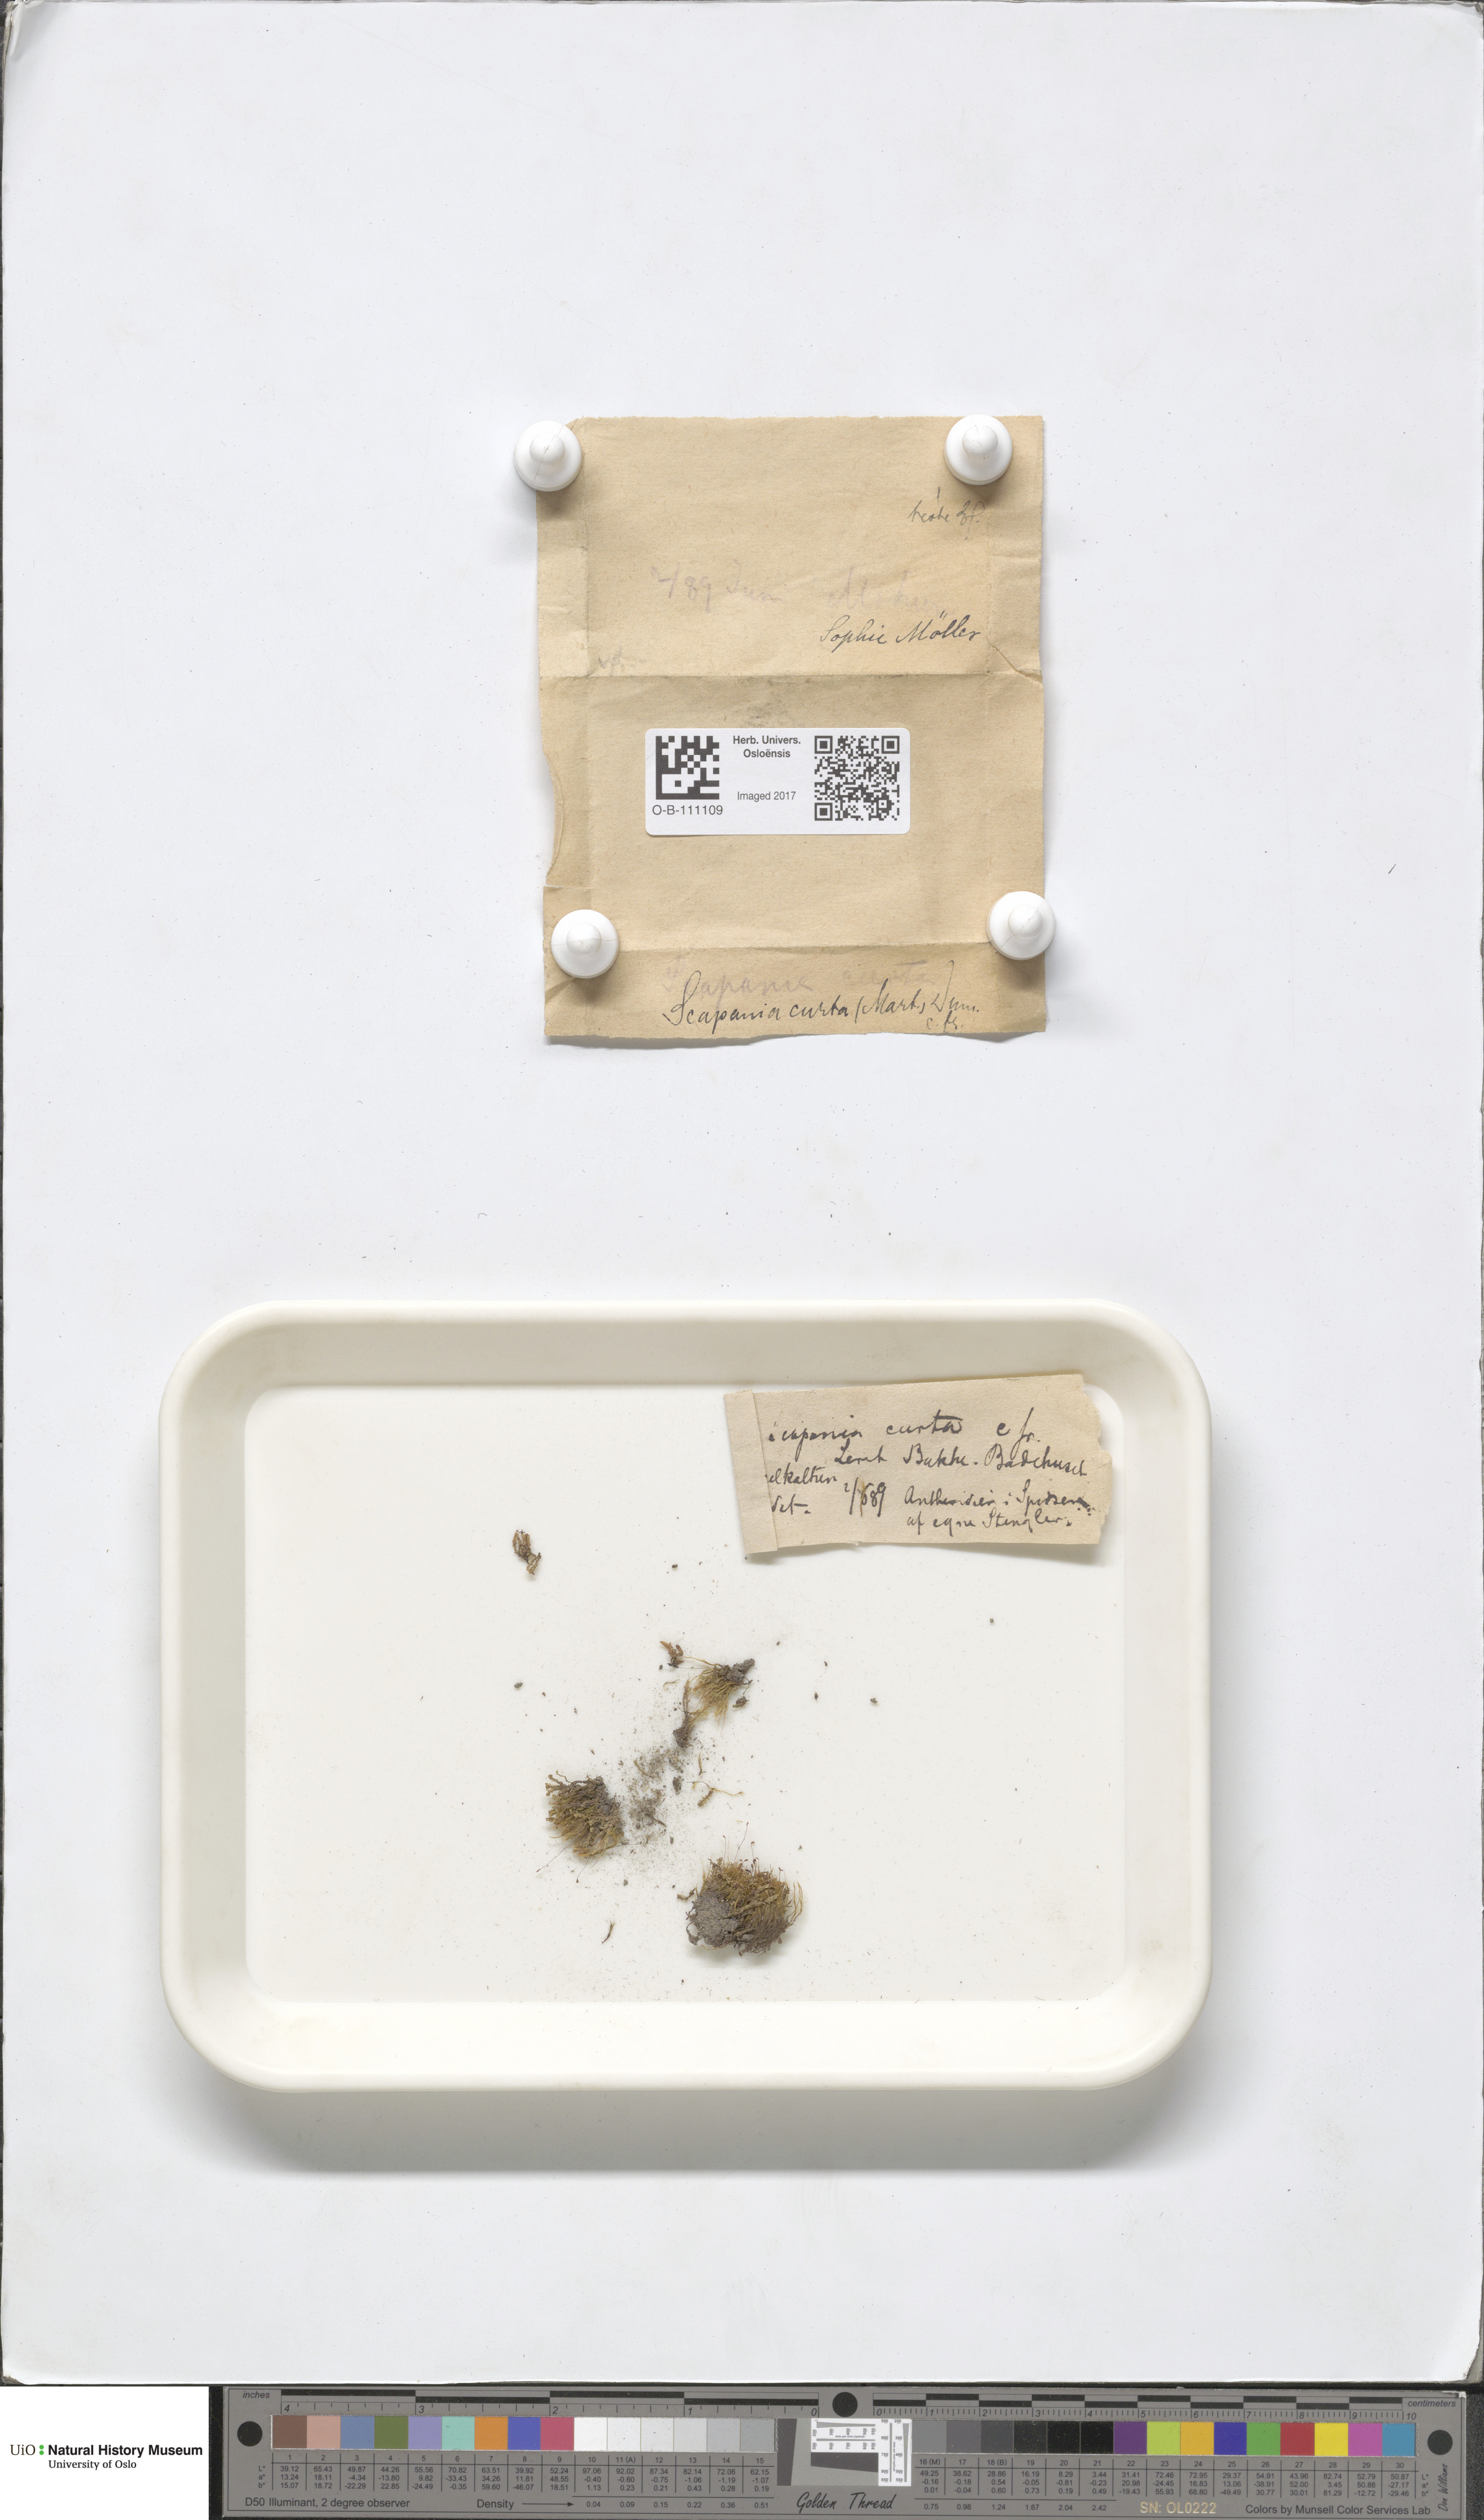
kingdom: Plantae
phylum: Marchantiophyta
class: Jungermanniopsida
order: Jungermanniales
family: Scapaniaceae
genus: Scapania
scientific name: Scapania curta
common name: Least earwort
